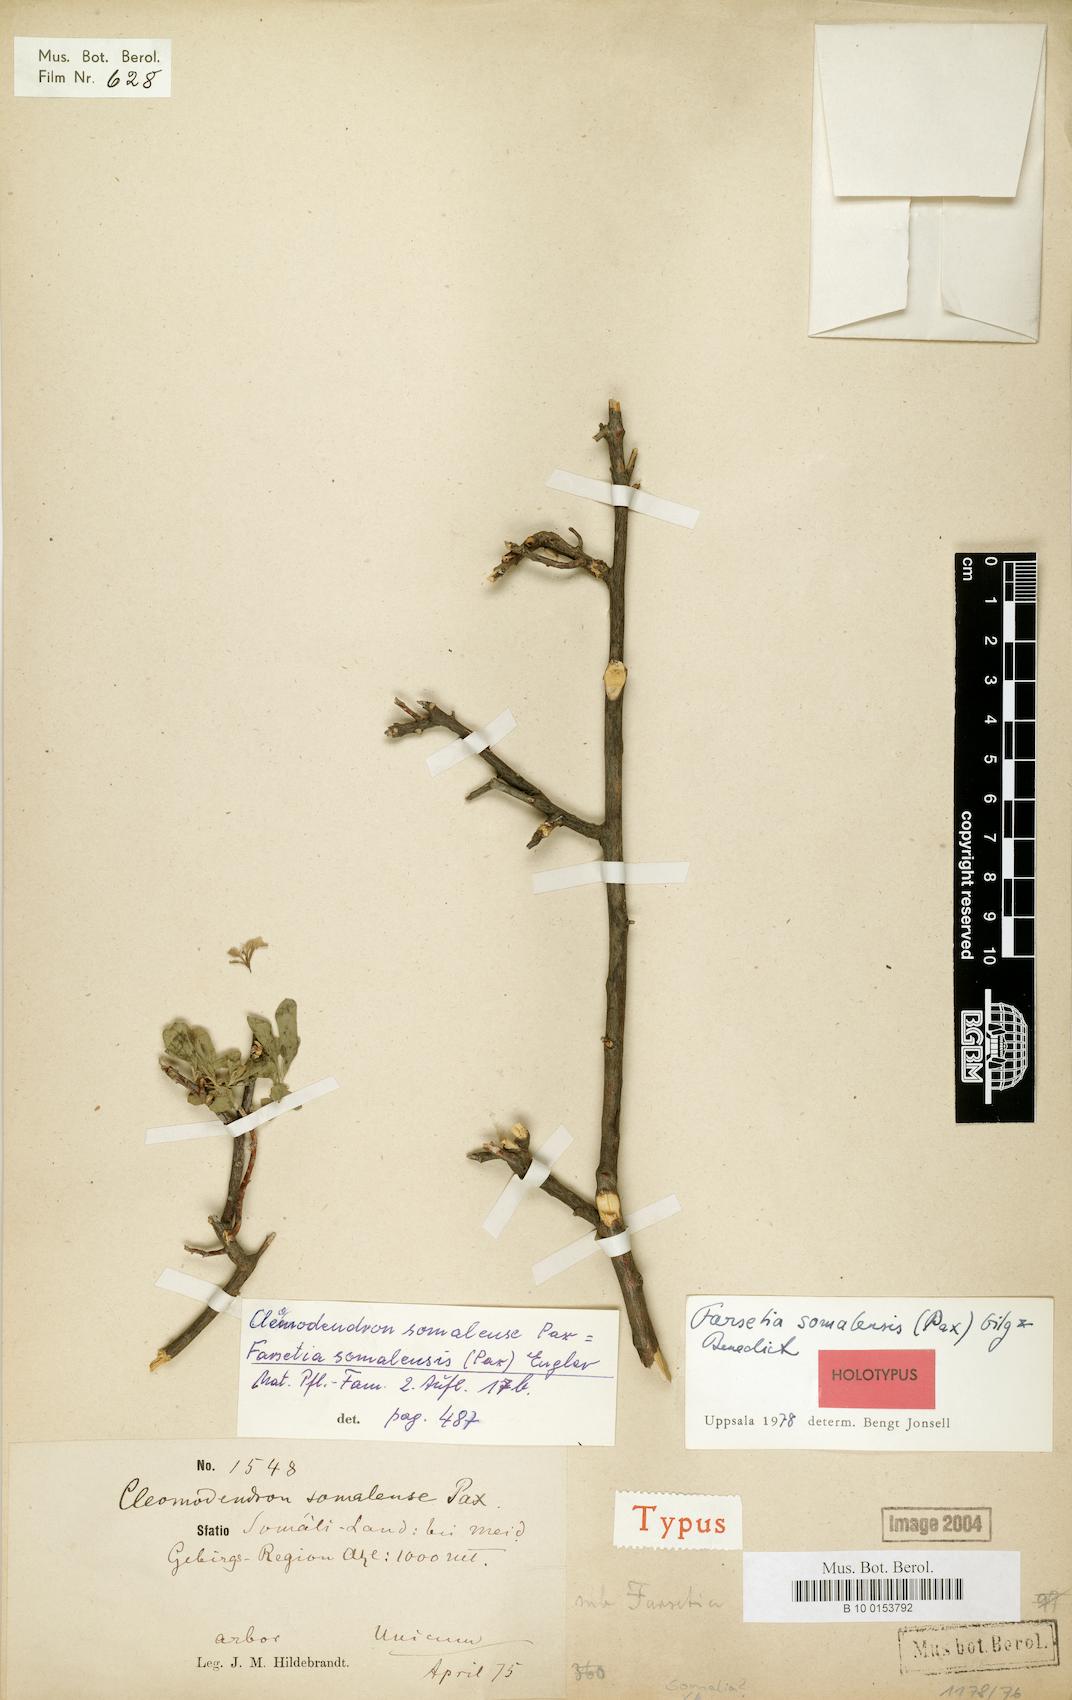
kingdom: Plantae
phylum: Tracheophyta
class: Magnoliopsida
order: Brassicales
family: Brassicaceae
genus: Farsetia
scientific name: Farsetia somalensis
